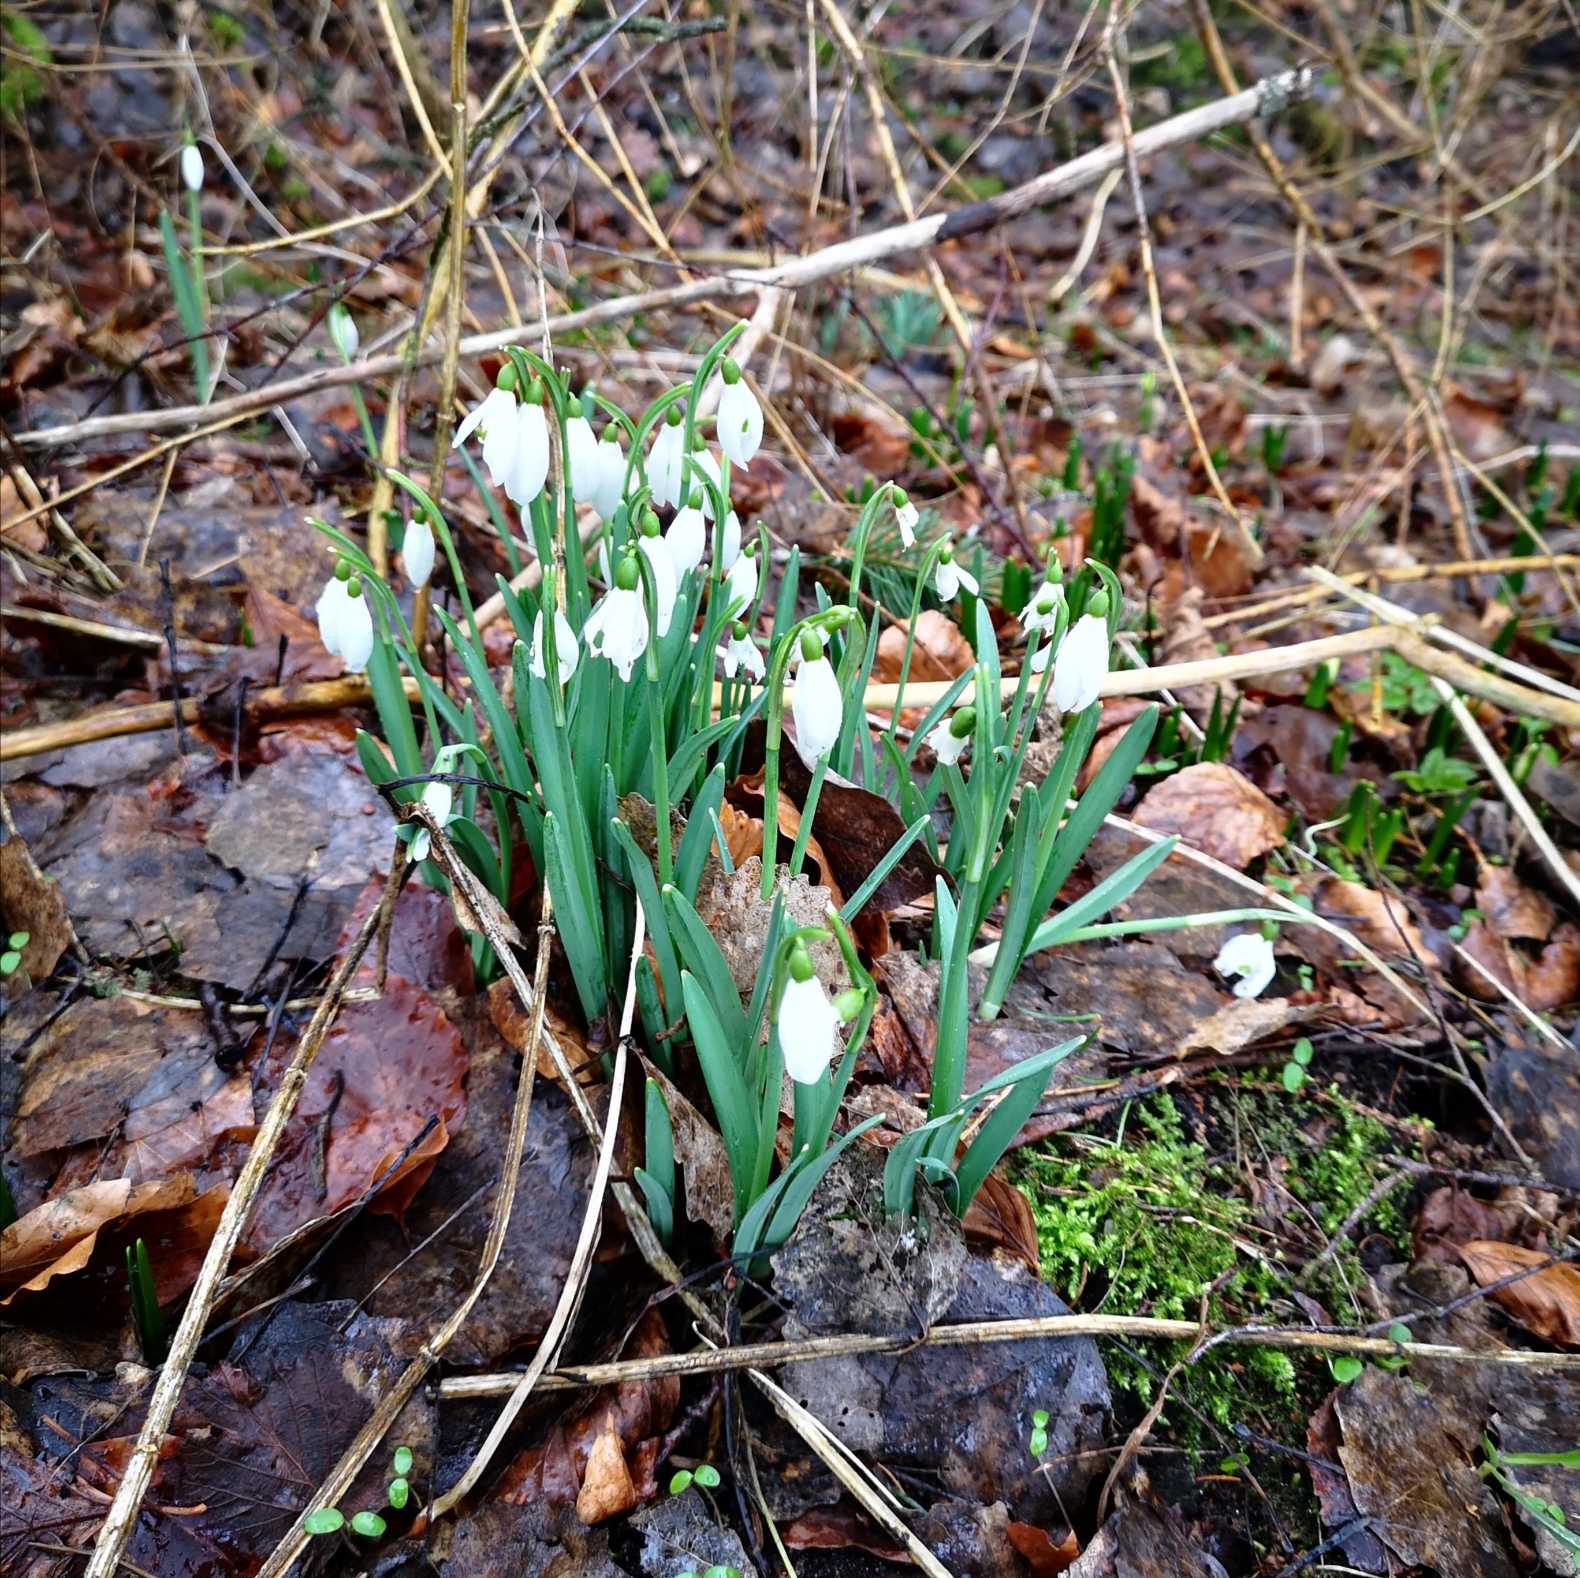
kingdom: Plantae
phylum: Tracheophyta
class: Liliopsida
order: Asparagales
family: Amaryllidaceae
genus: Galanthus
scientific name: Galanthus nivalis
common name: Vintergæk
